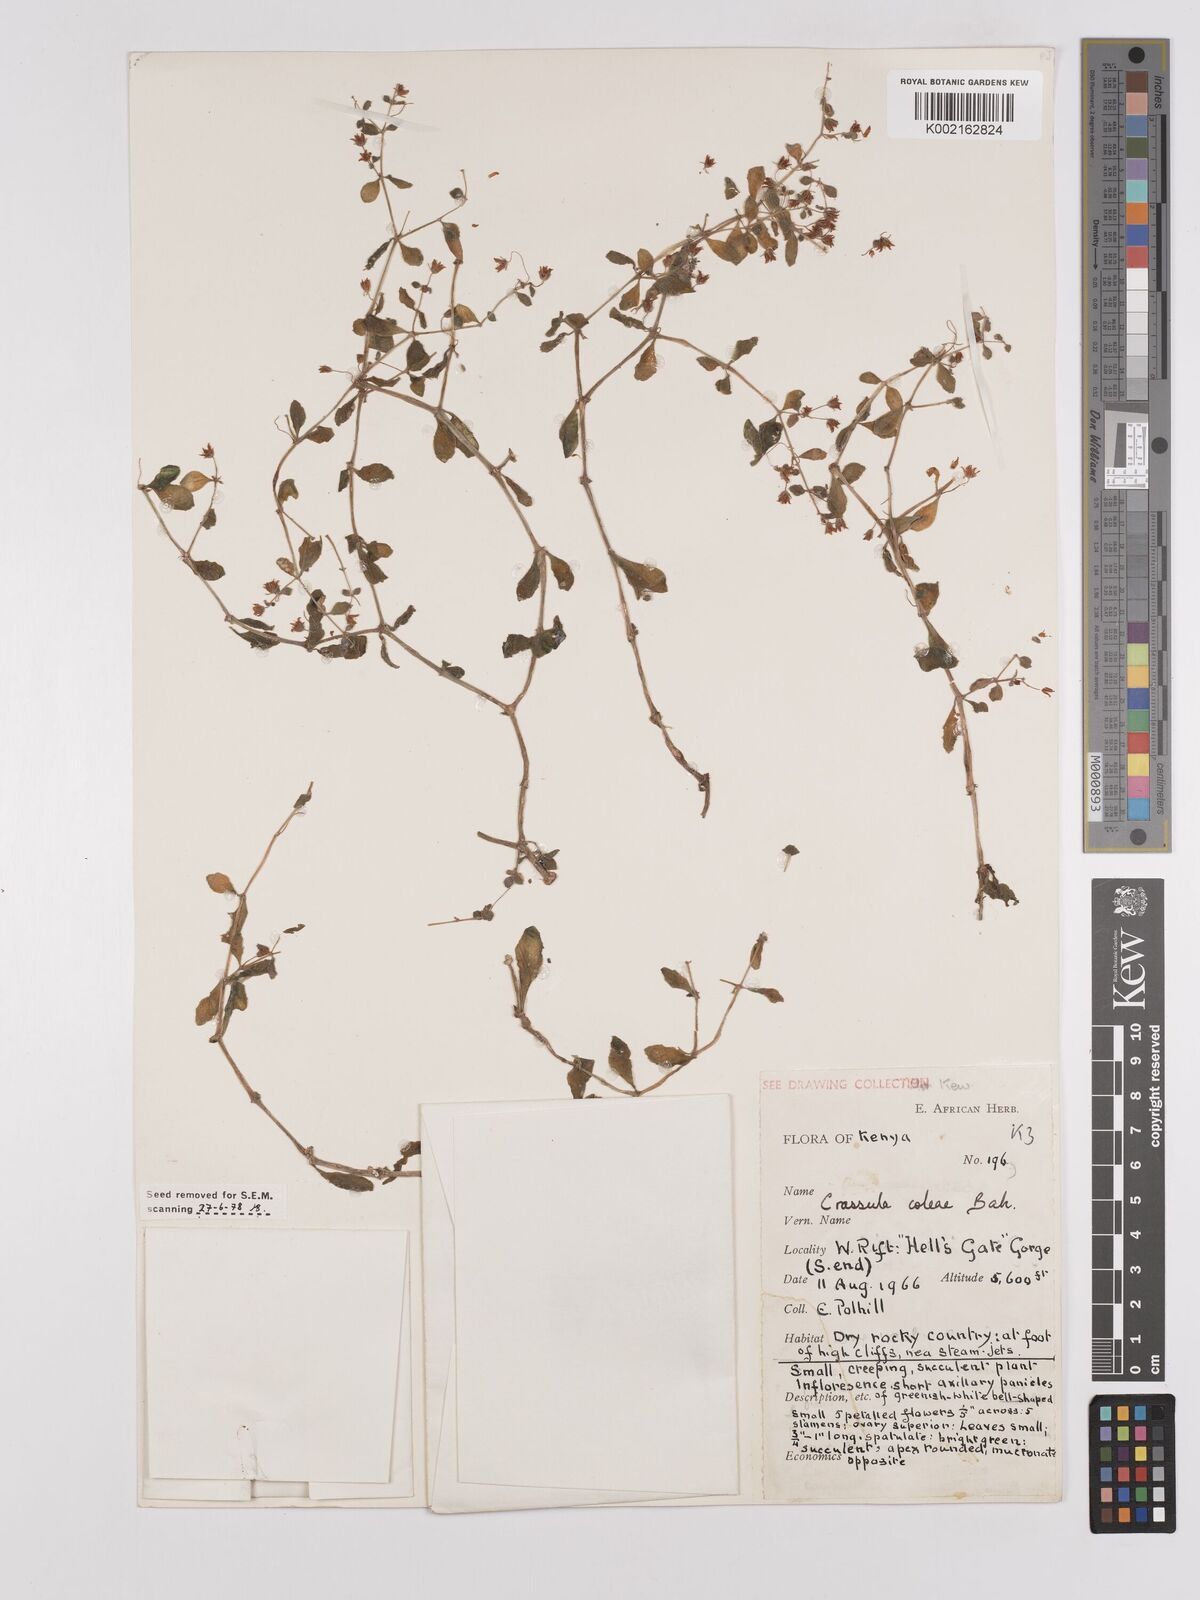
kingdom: Plantae
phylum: Tracheophyta
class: Magnoliopsida
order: Saxifragales
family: Crassulaceae
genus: Crassula
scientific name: Crassula volkensii
